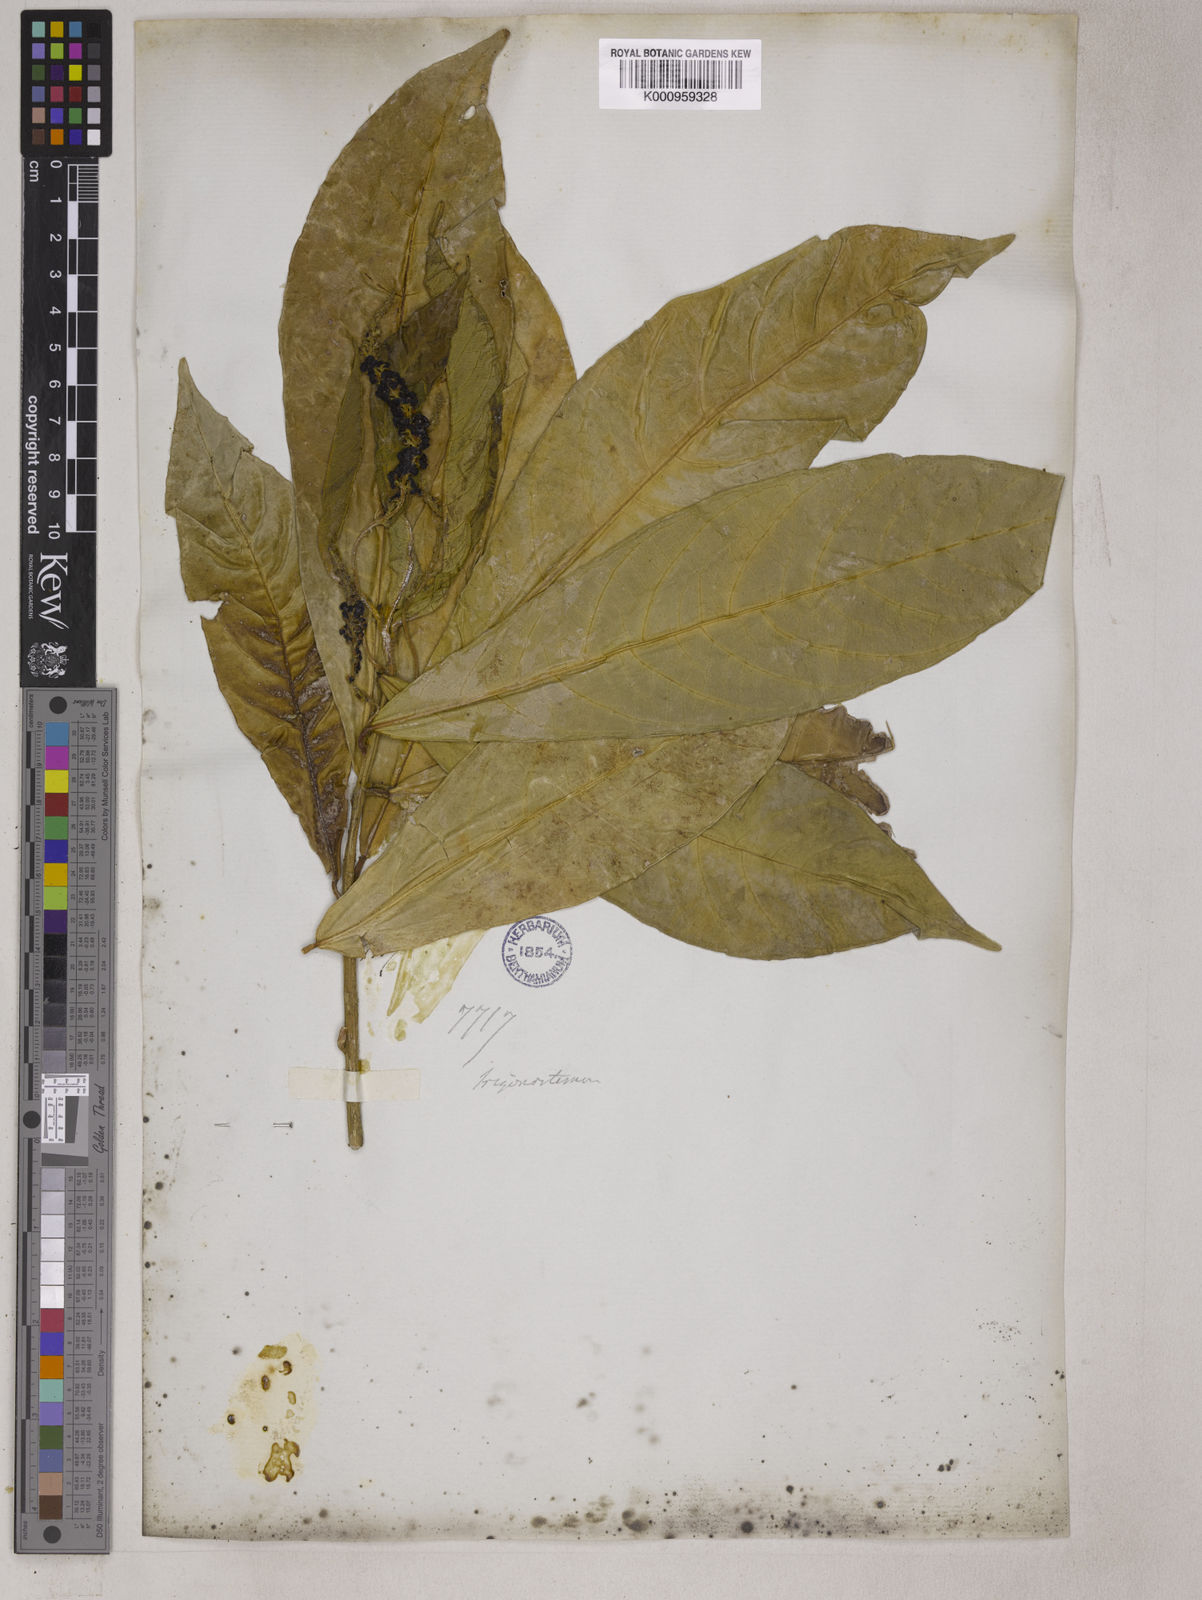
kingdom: Plantae
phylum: Tracheophyta
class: Magnoliopsida
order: Malpighiales
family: Euphorbiaceae
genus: Trigonostemon
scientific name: Trigonostemon longifolius
